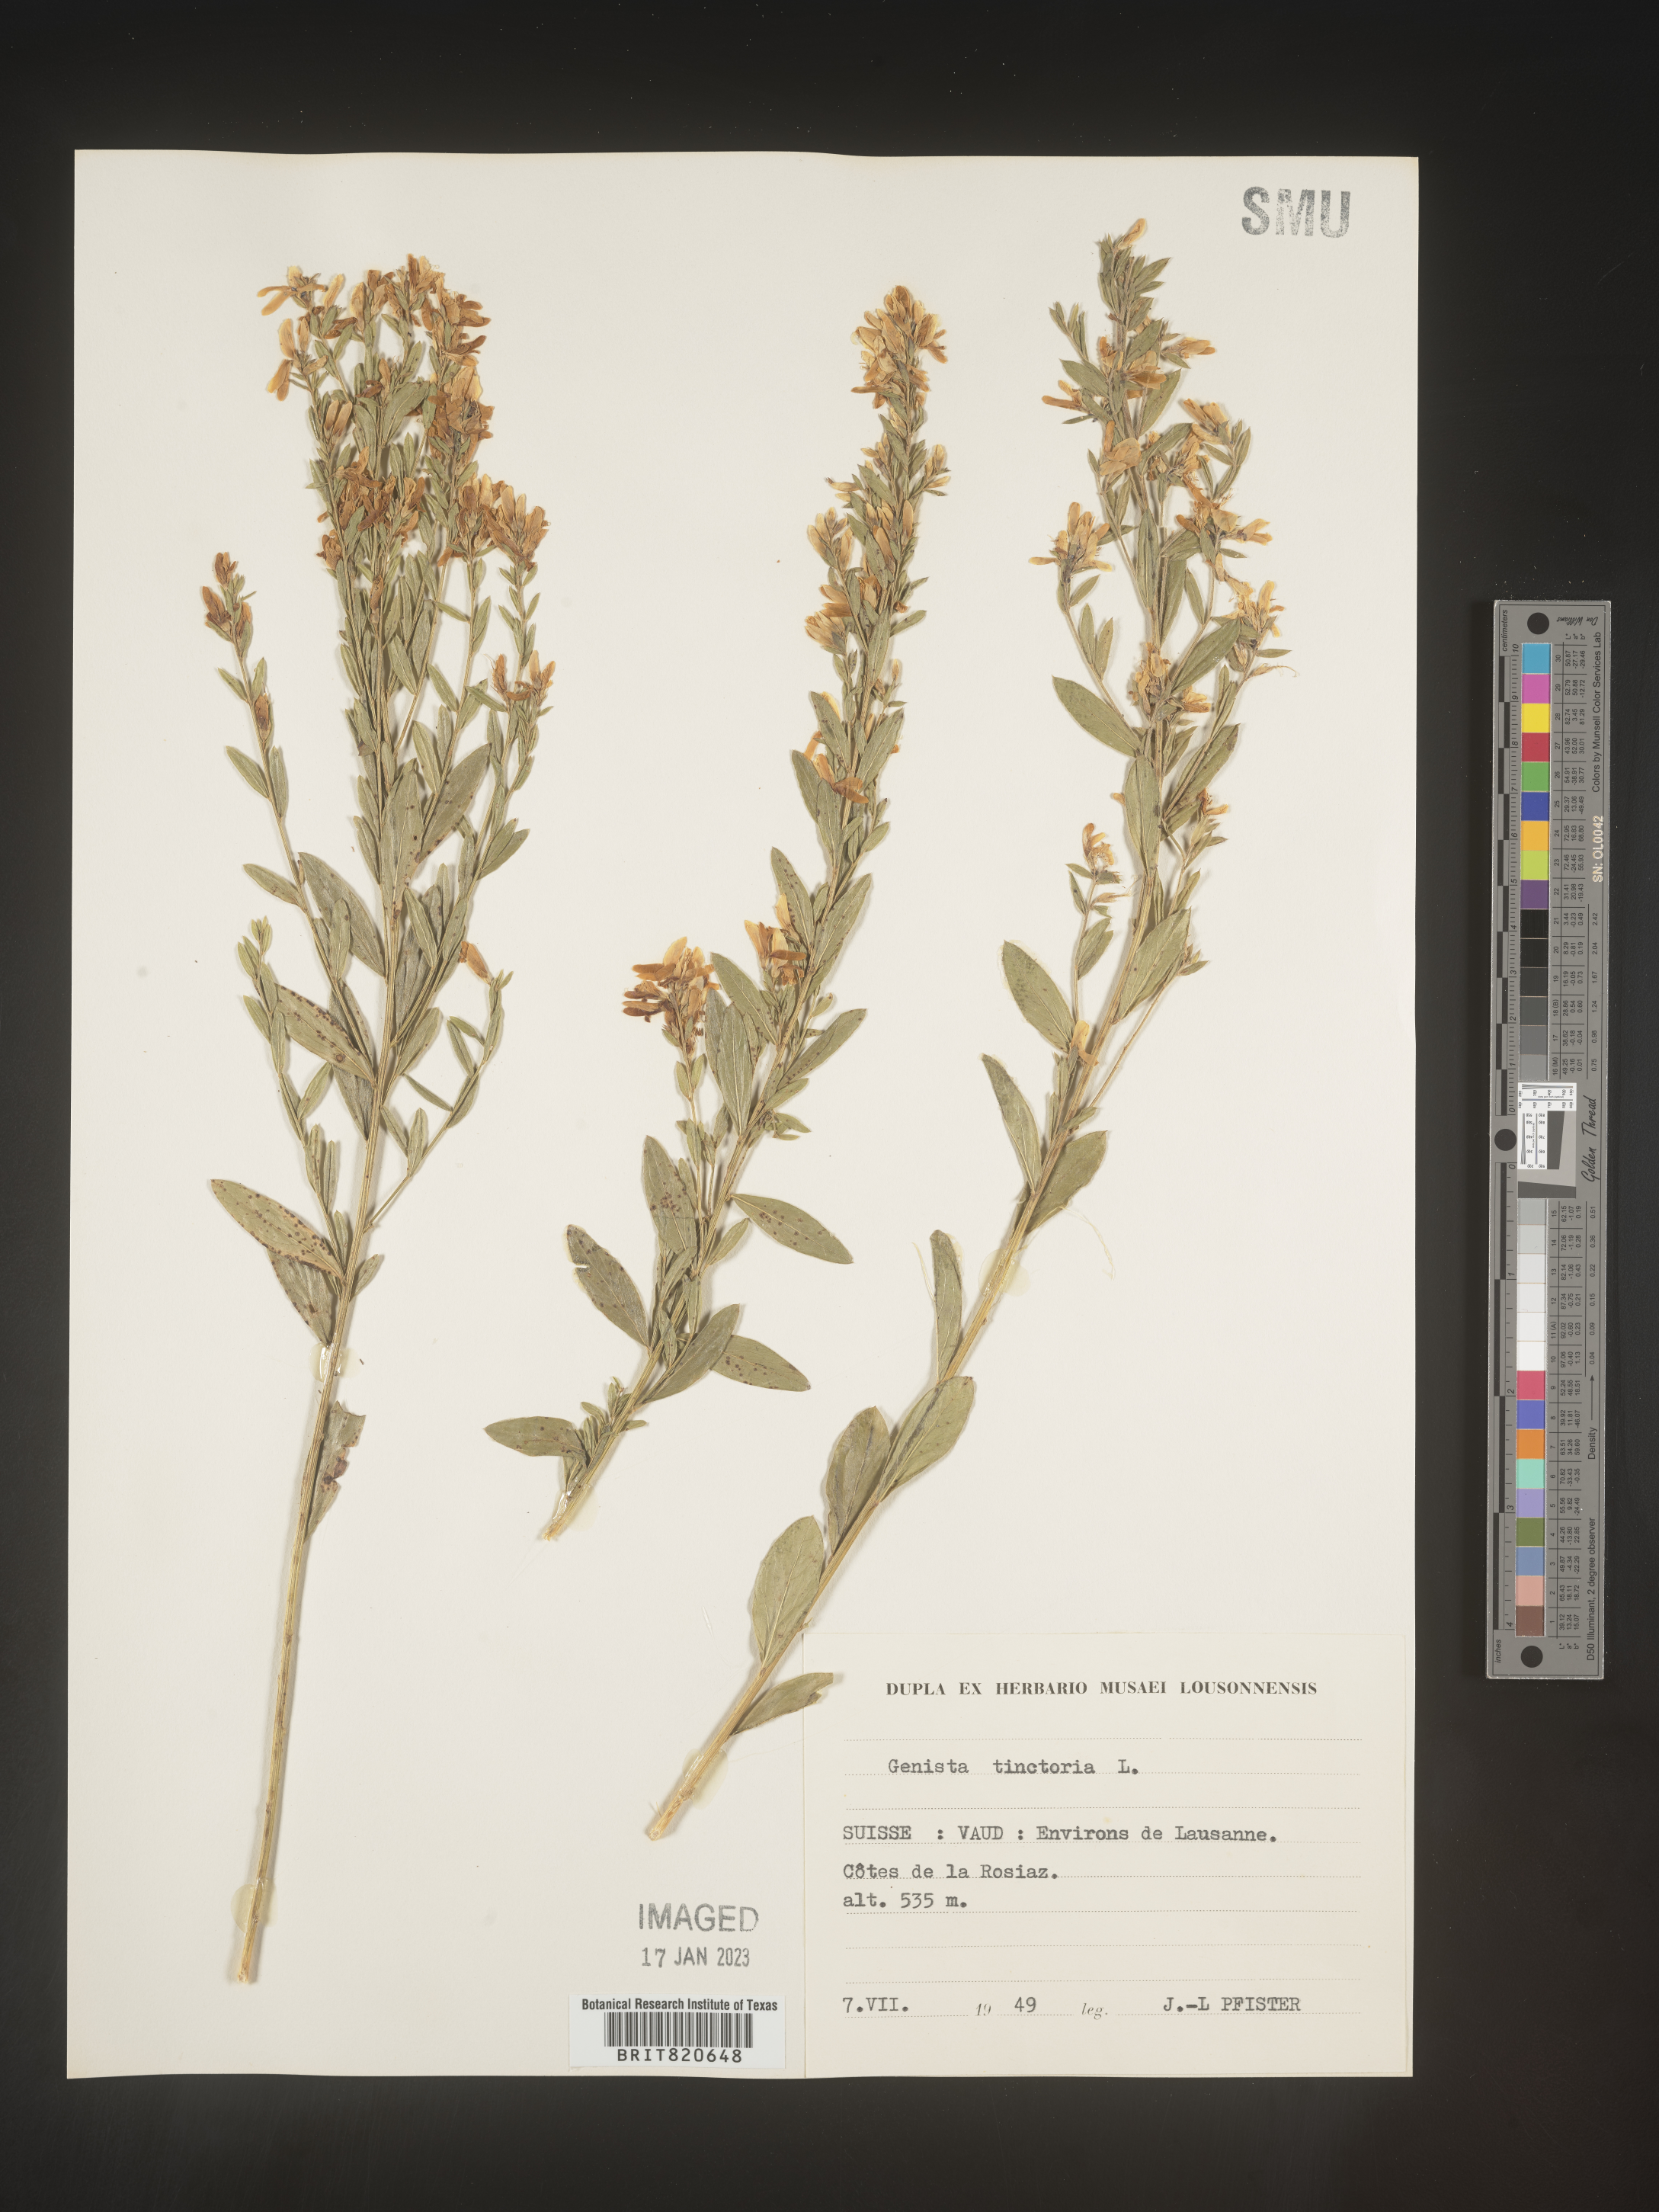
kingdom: Plantae
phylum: Tracheophyta
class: Magnoliopsida
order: Fabales
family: Fabaceae
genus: Genista
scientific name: Genista tinctoria
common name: Dyer's greenweed
